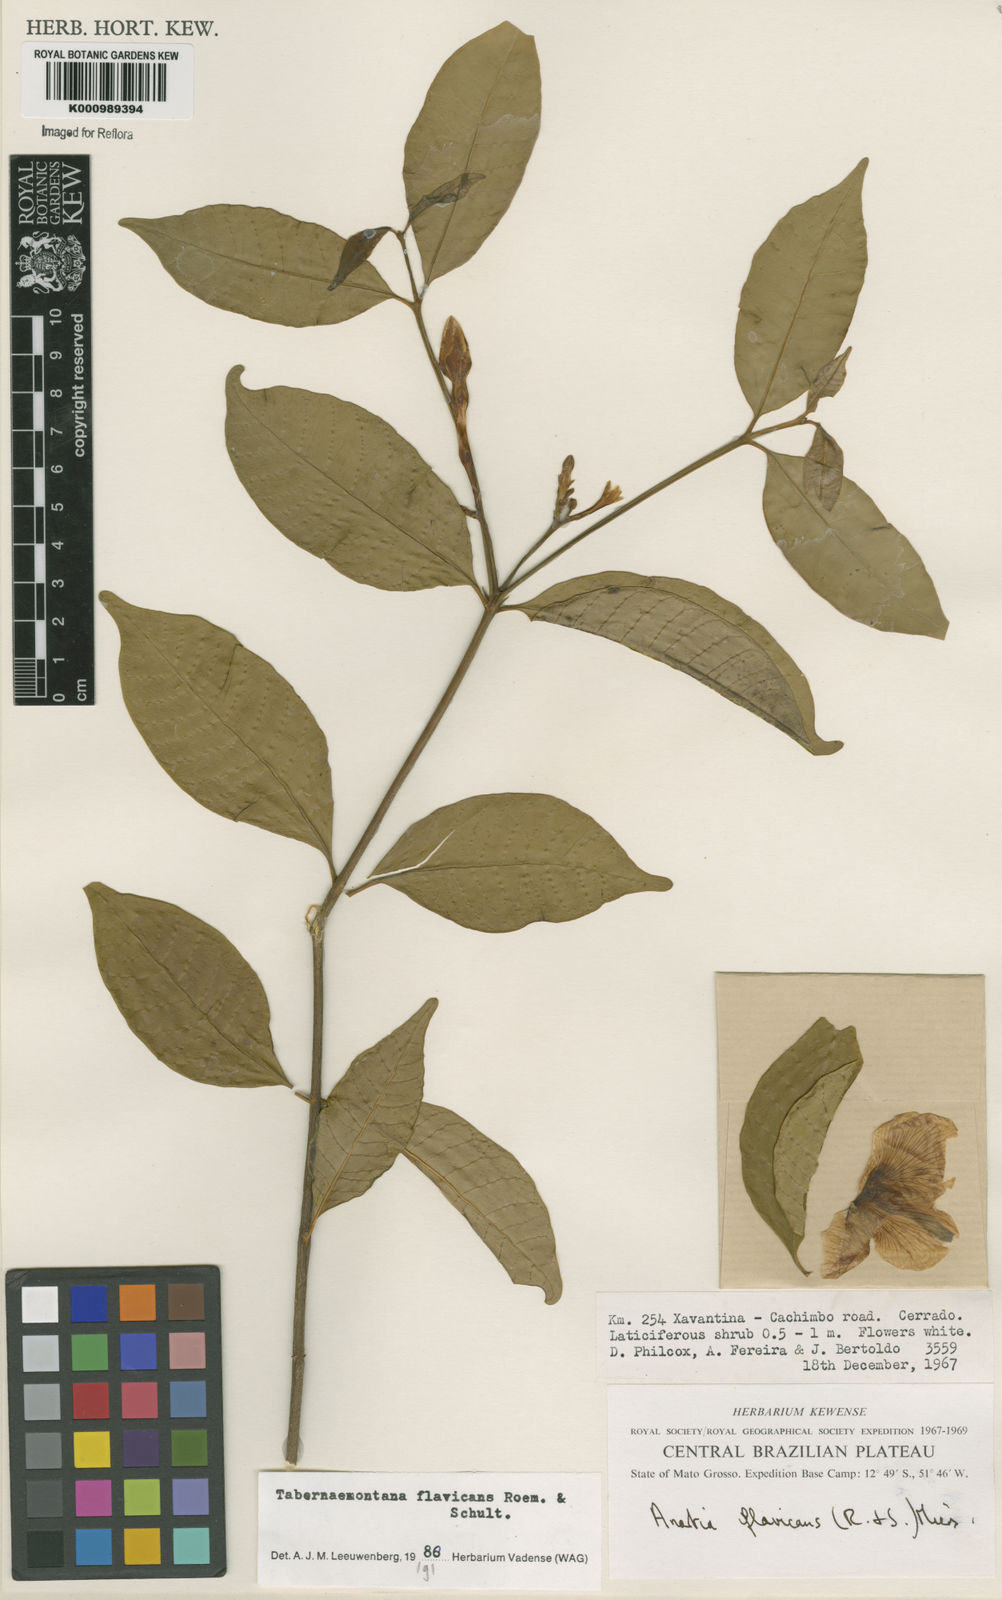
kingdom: Plantae
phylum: Tracheophyta
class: Magnoliopsida
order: Gentianales
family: Apocynaceae
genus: Tabernaemontana
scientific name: Tabernaemontana flavicans
